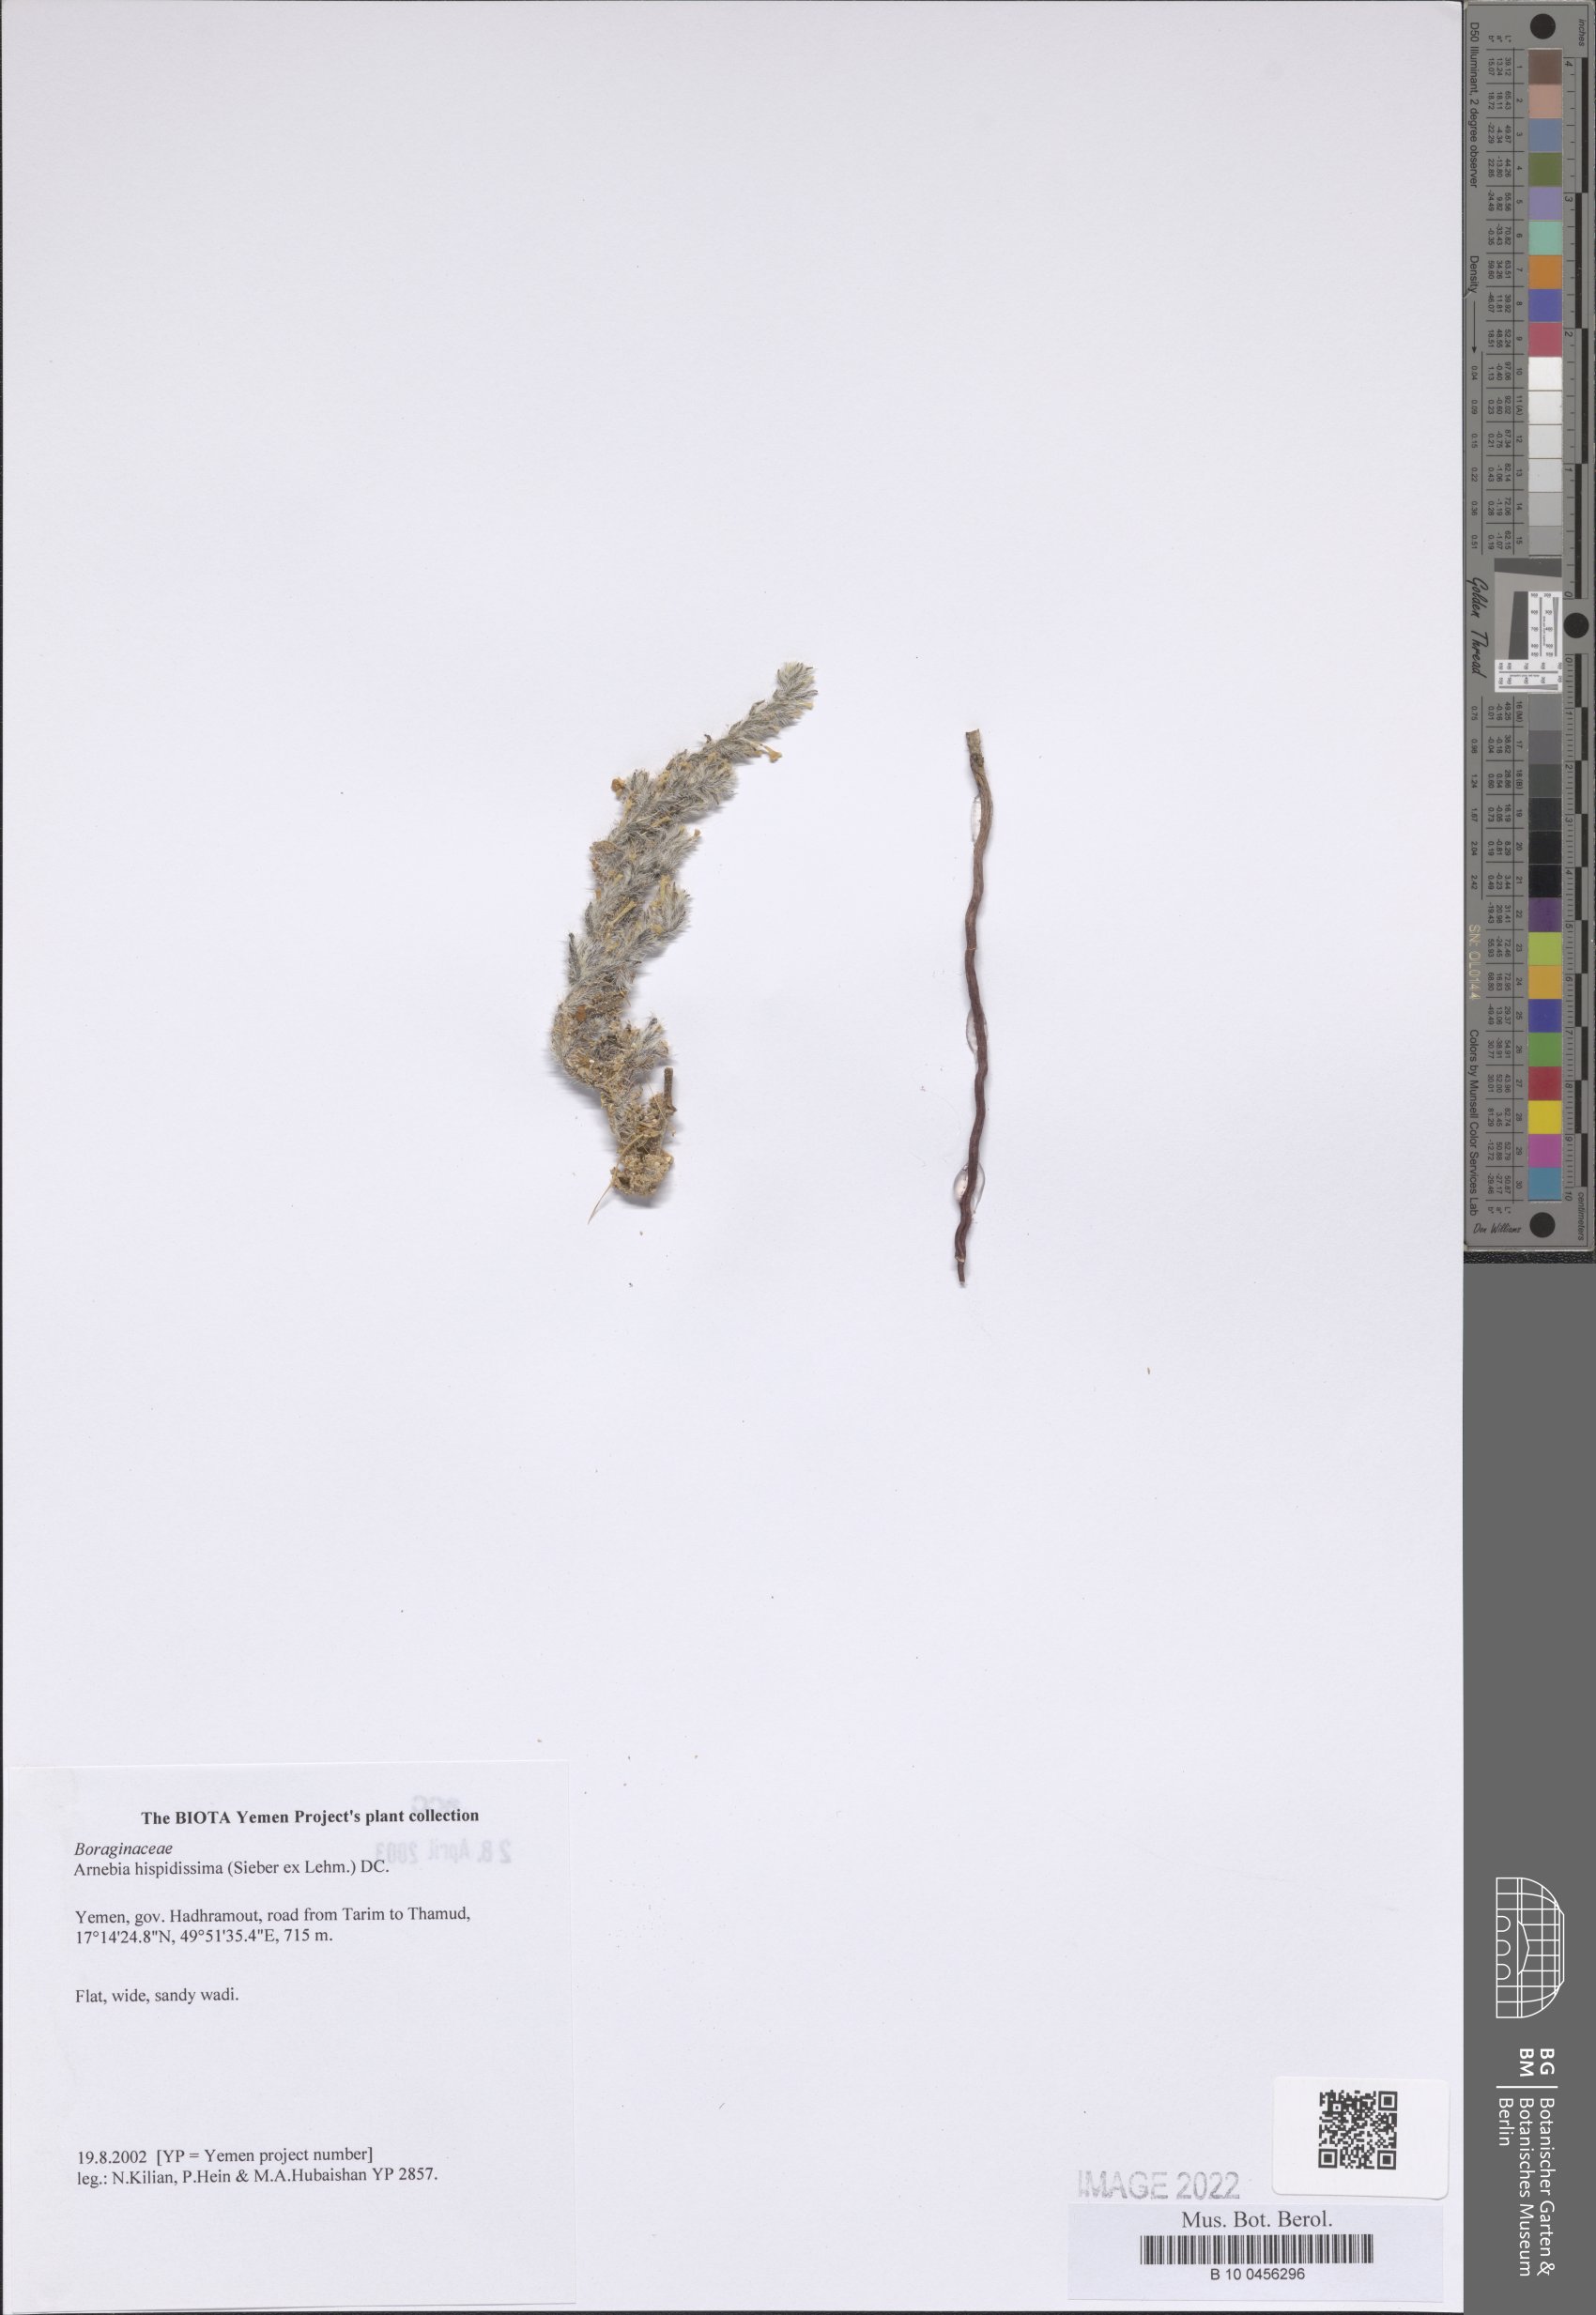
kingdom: Plantae
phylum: Tracheophyta
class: Magnoliopsida
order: Boraginales
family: Boraginaceae
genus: Arnebia
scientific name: Arnebia hispidissima
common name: Arabian-primrose
